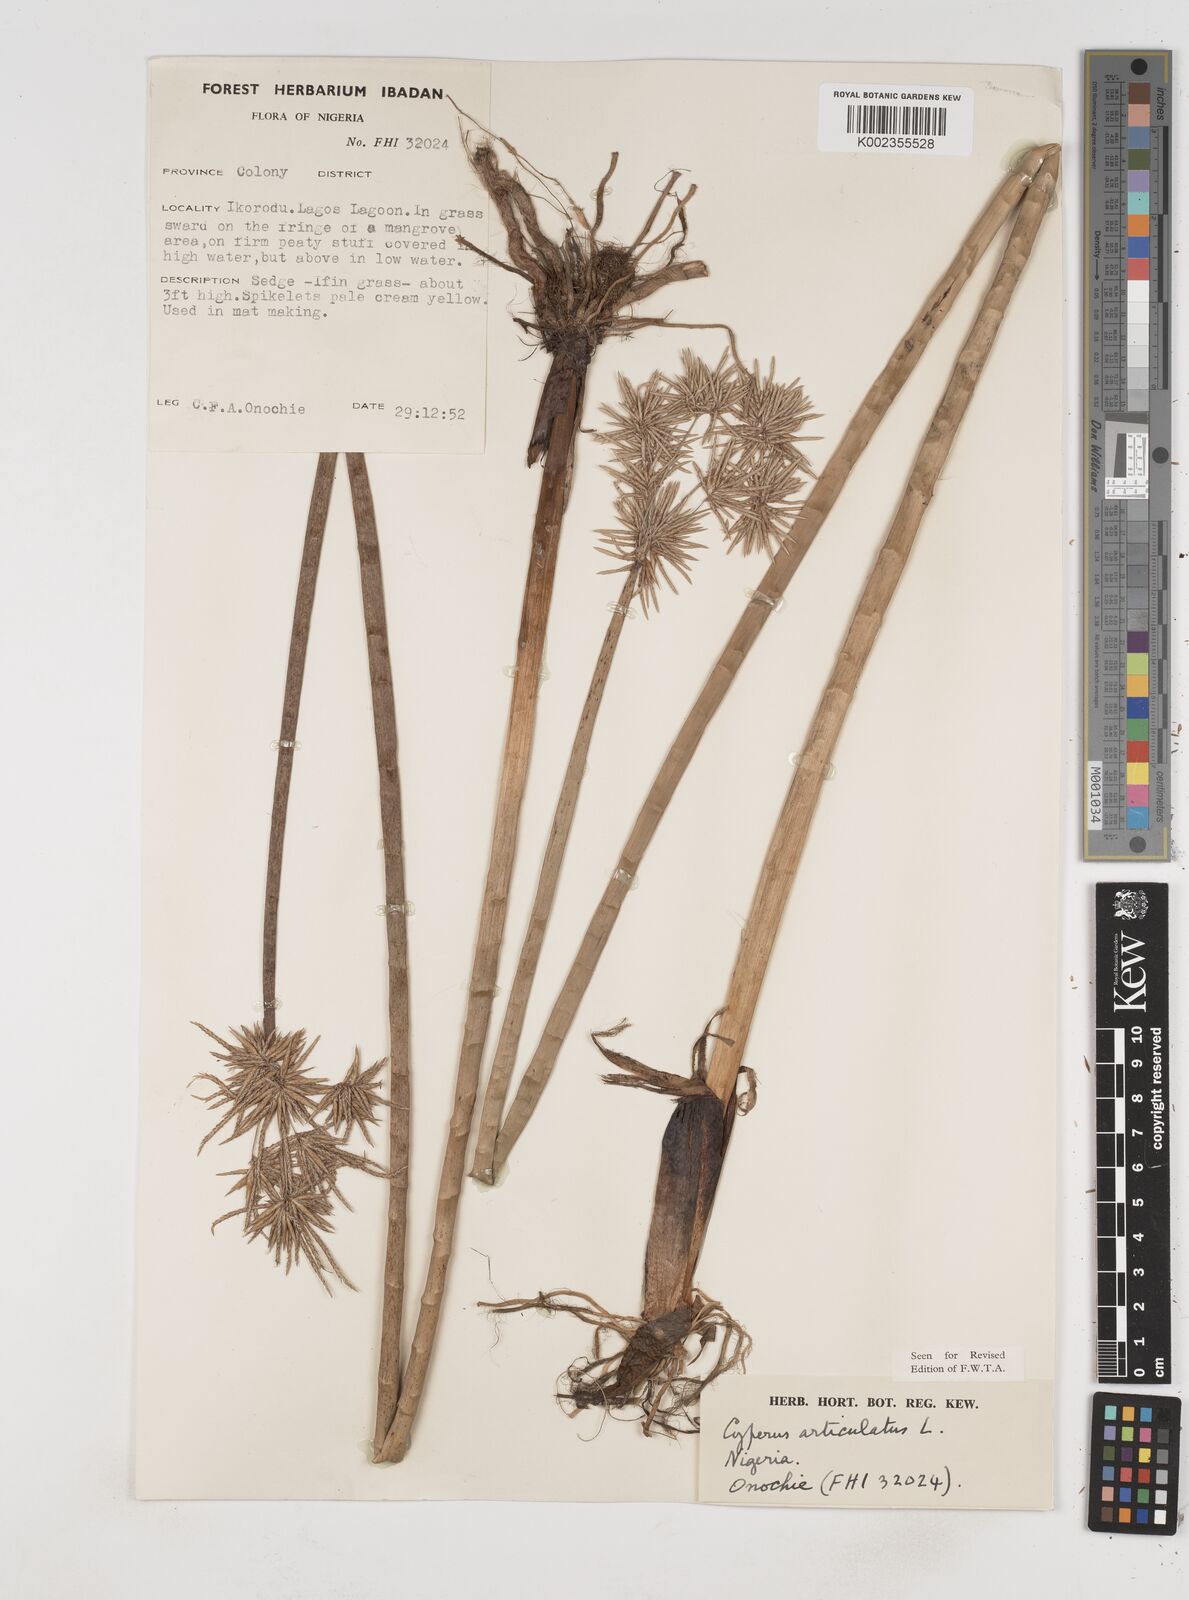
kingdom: Plantae
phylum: Tracheophyta
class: Liliopsida
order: Poales
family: Cyperaceae
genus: Cyperus
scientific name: Cyperus articulatus
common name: Jointed flatsedge
